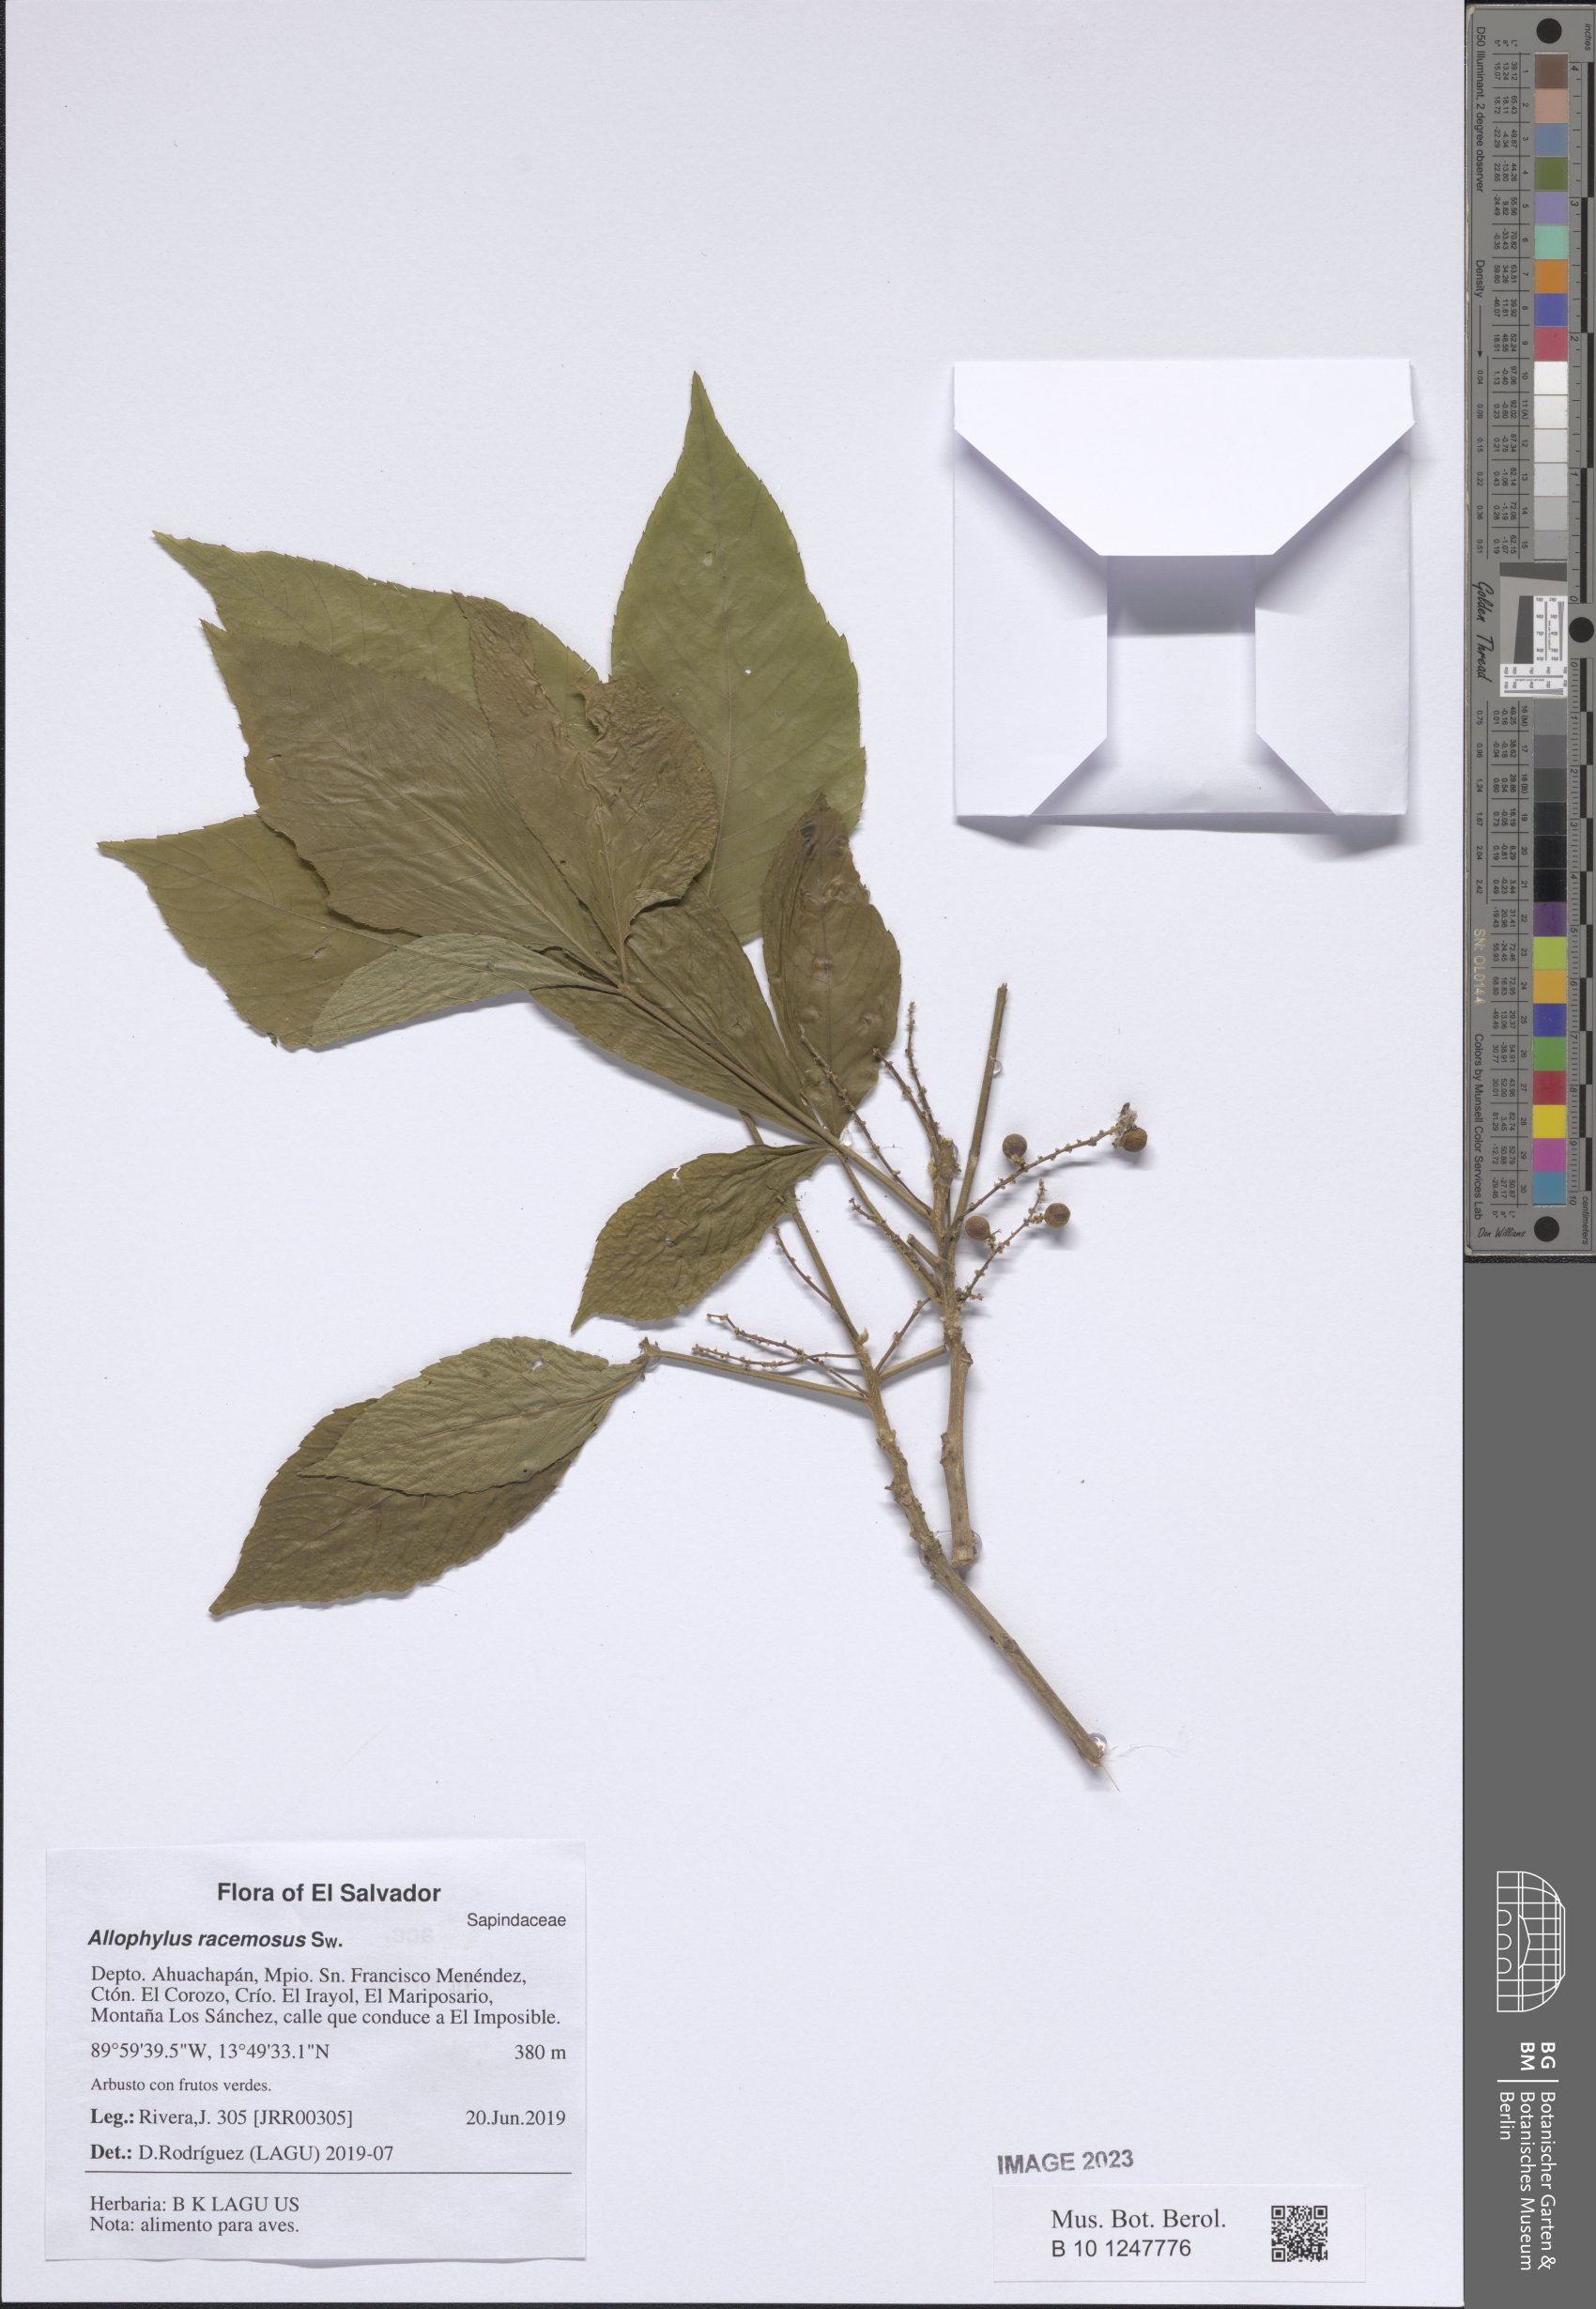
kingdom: Plantae
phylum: Tracheophyta
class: Magnoliopsida
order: Sapindales
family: Sapindaceae
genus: Allophylus
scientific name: Allophylus racemosus
